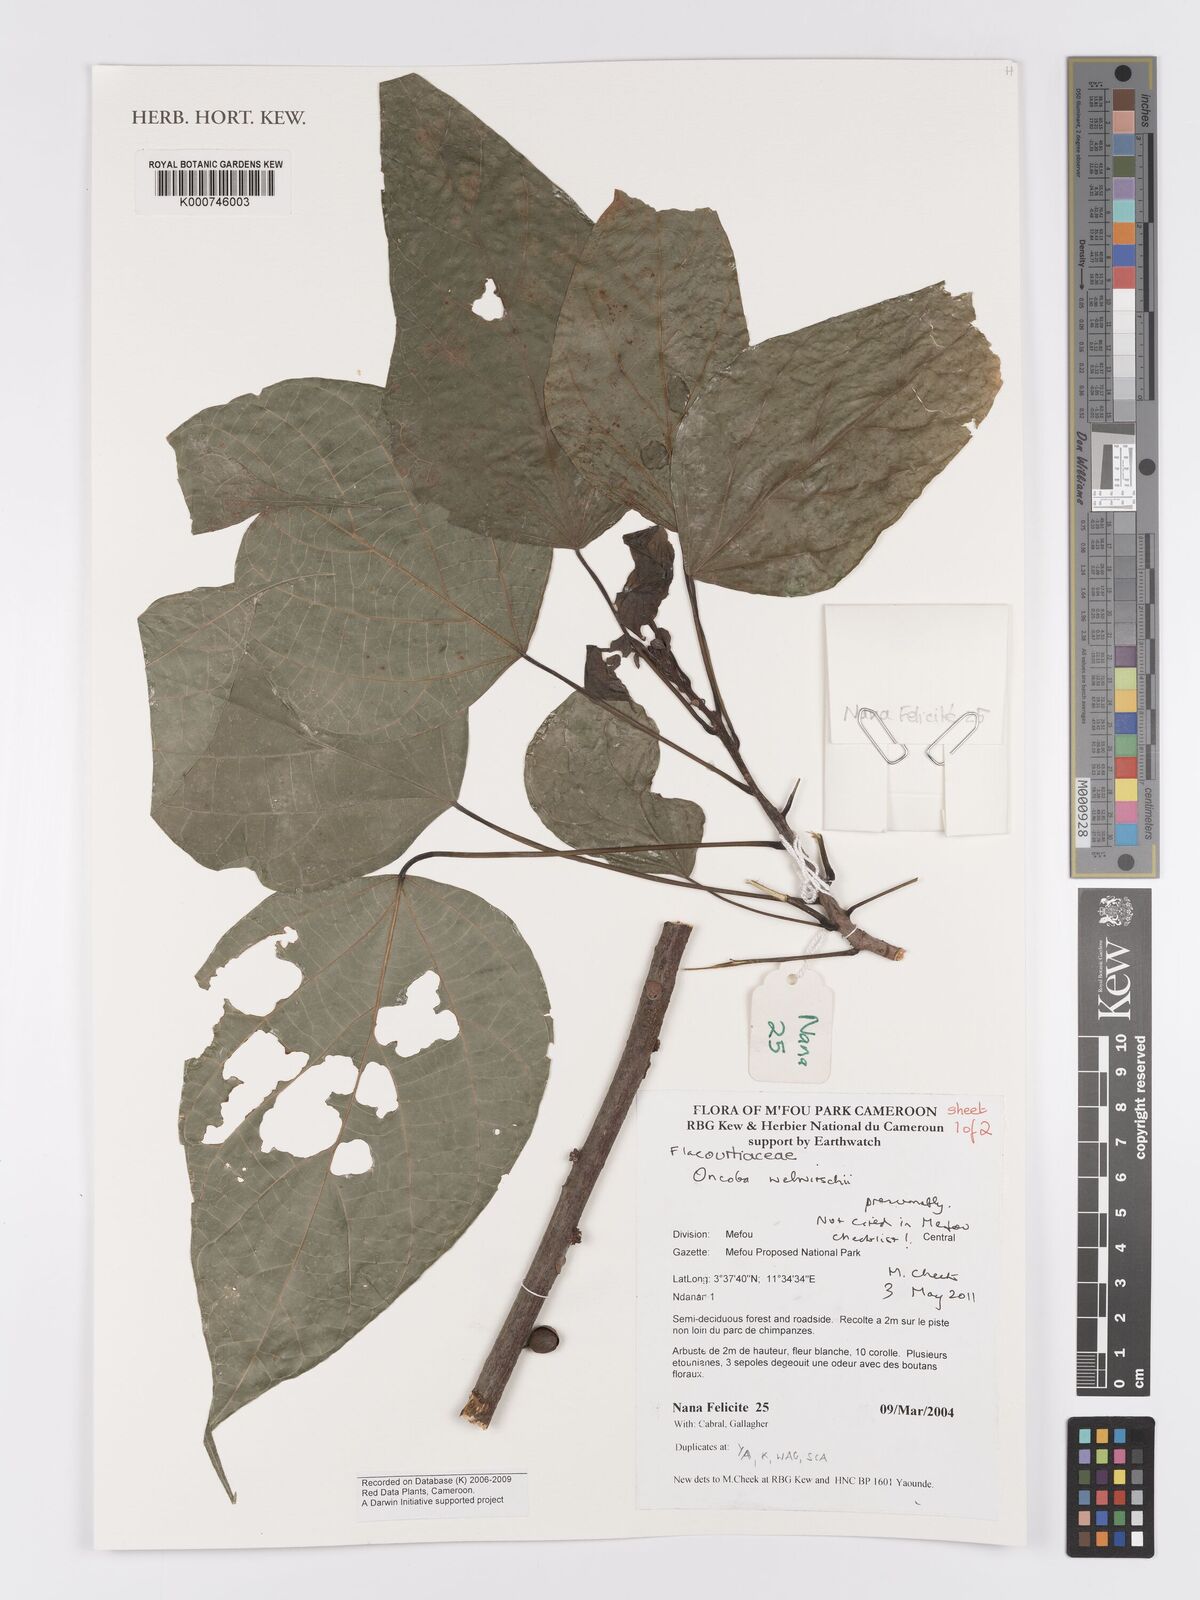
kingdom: Plantae
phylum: Tracheophyta
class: Magnoliopsida
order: Malpighiales
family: Achariaceae
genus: Caloncoba
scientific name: Caloncoba welwitschii
